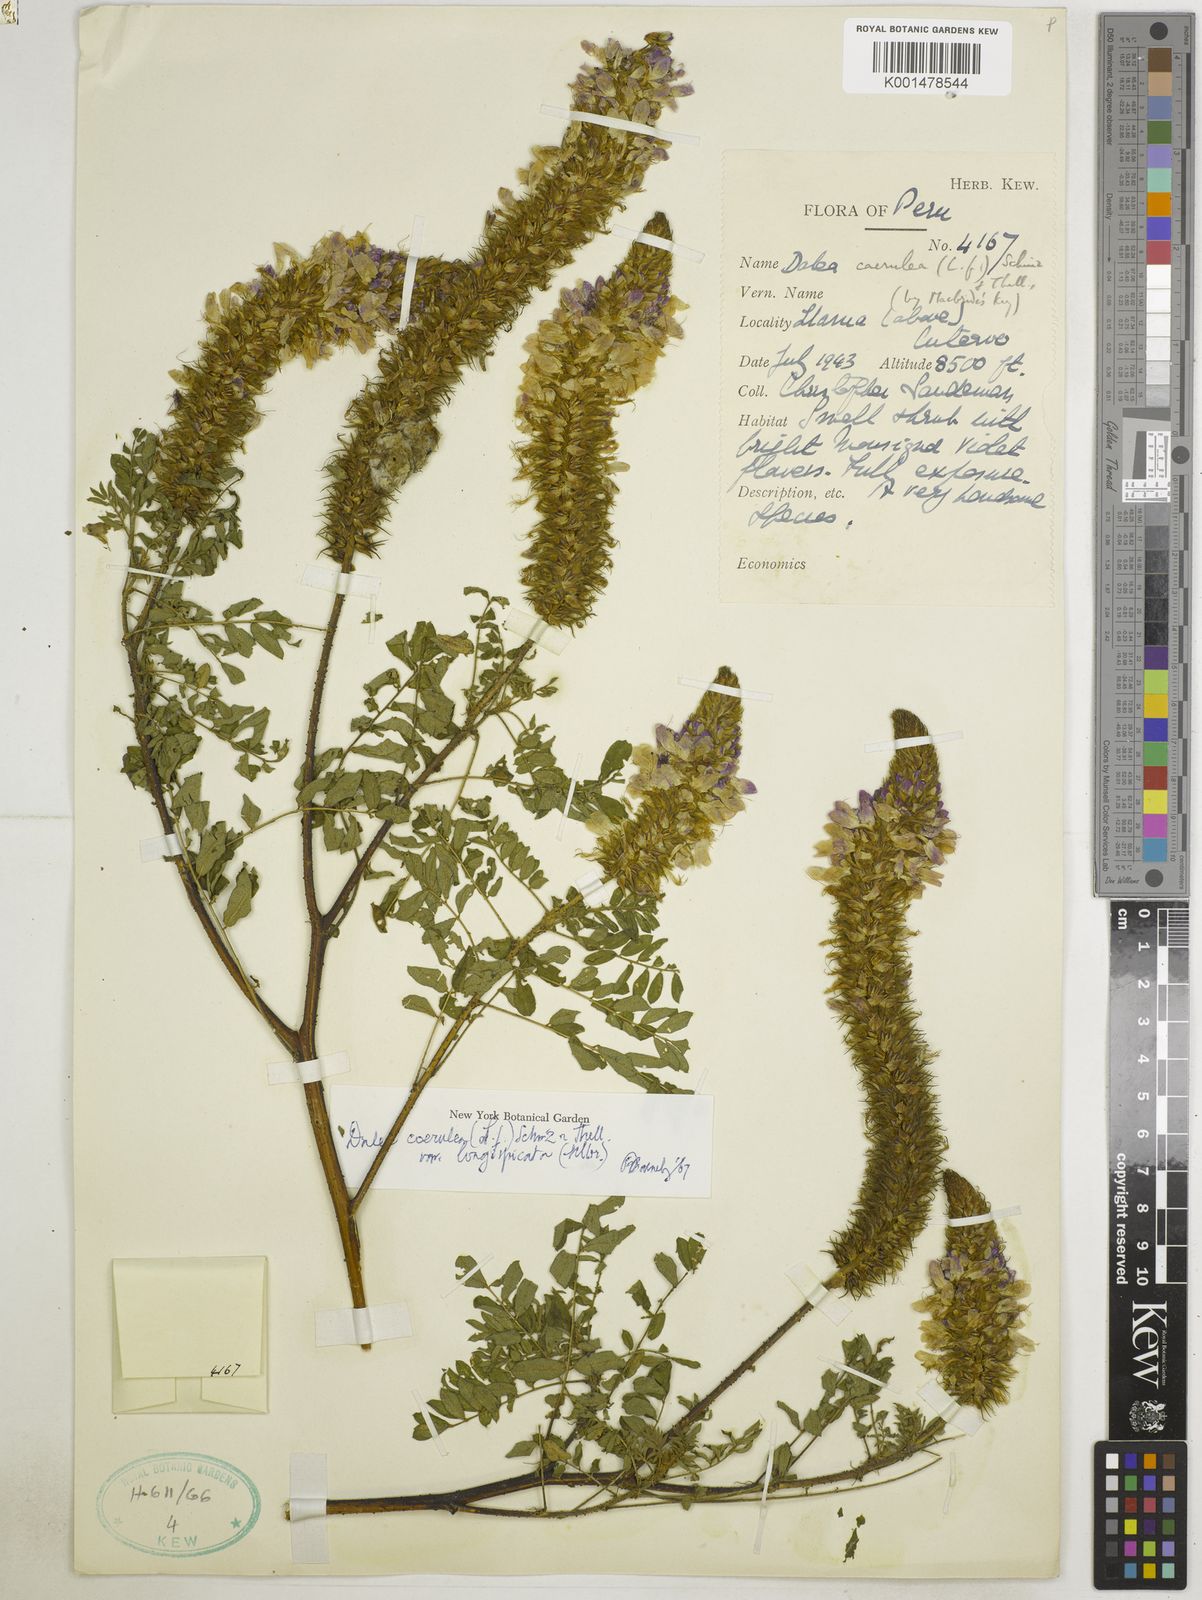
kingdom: Plantae
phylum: Tracheophyta
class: Magnoliopsida
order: Fabales
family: Fabaceae
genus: Dalea
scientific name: Dalea coerulea
